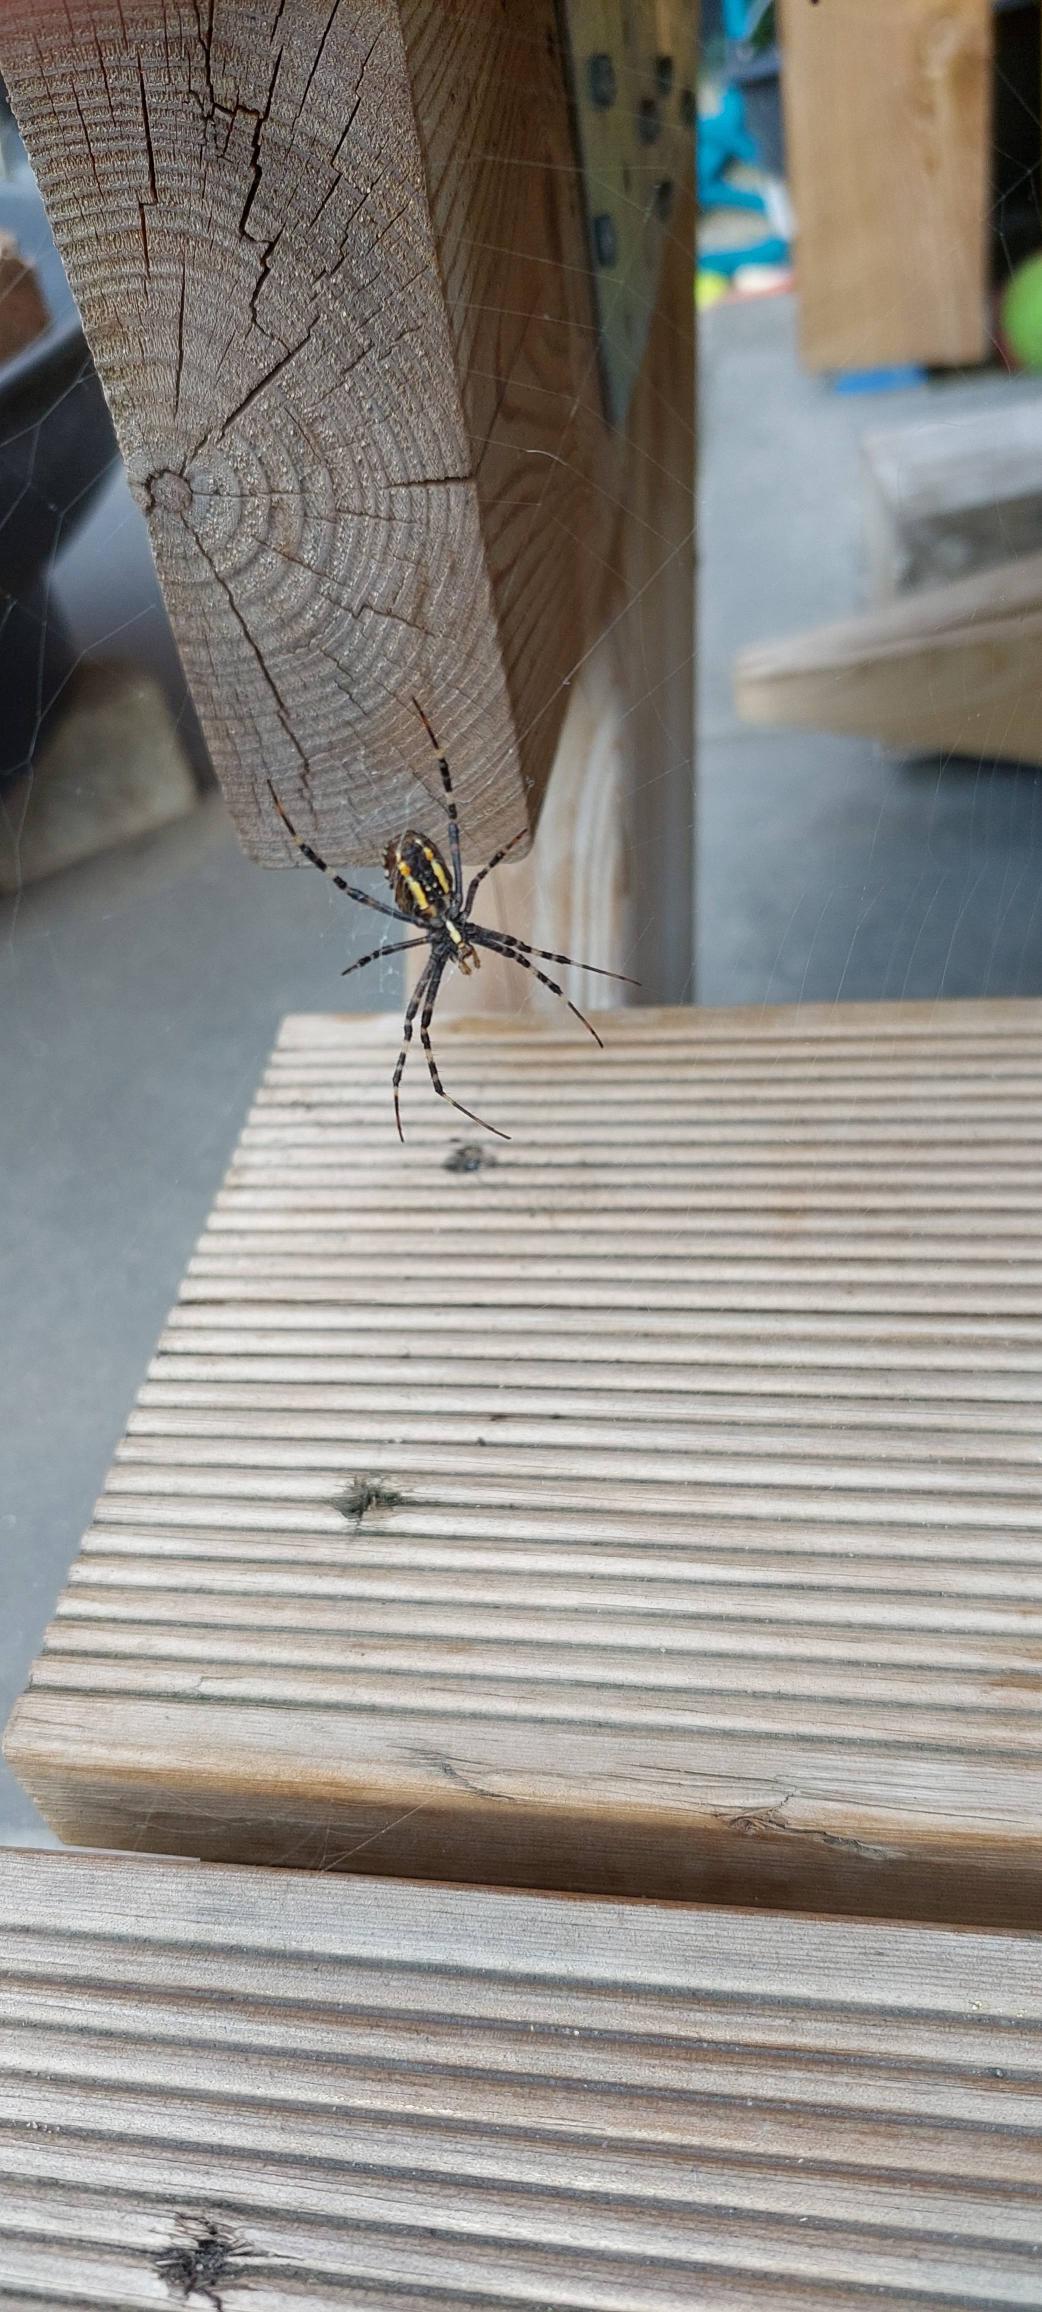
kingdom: Animalia
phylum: Arthropoda
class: Arachnida
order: Araneae
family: Araneidae
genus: Argiope
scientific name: Argiope bruennichi
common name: Hvepseedderkop
